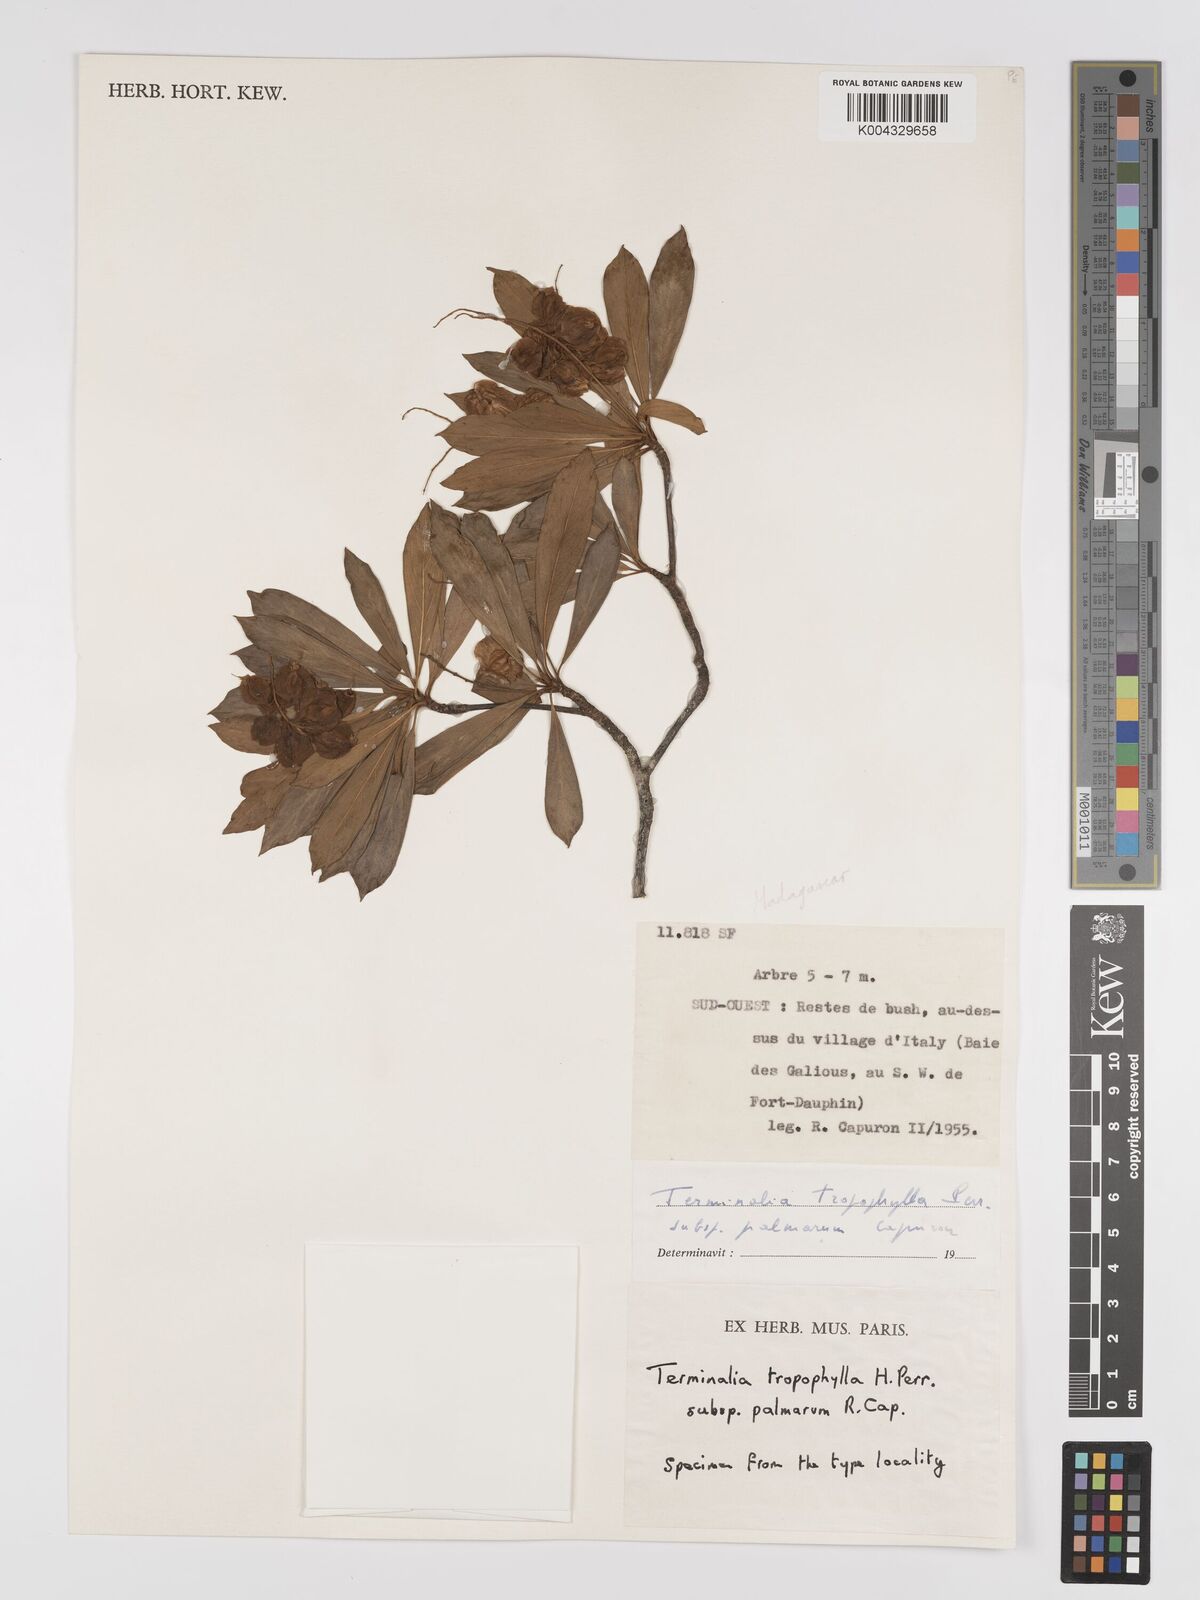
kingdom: Plantae
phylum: Tracheophyta
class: Magnoliopsida
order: Myrtales
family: Combretaceae
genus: Terminalia
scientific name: Terminalia tropophylla
